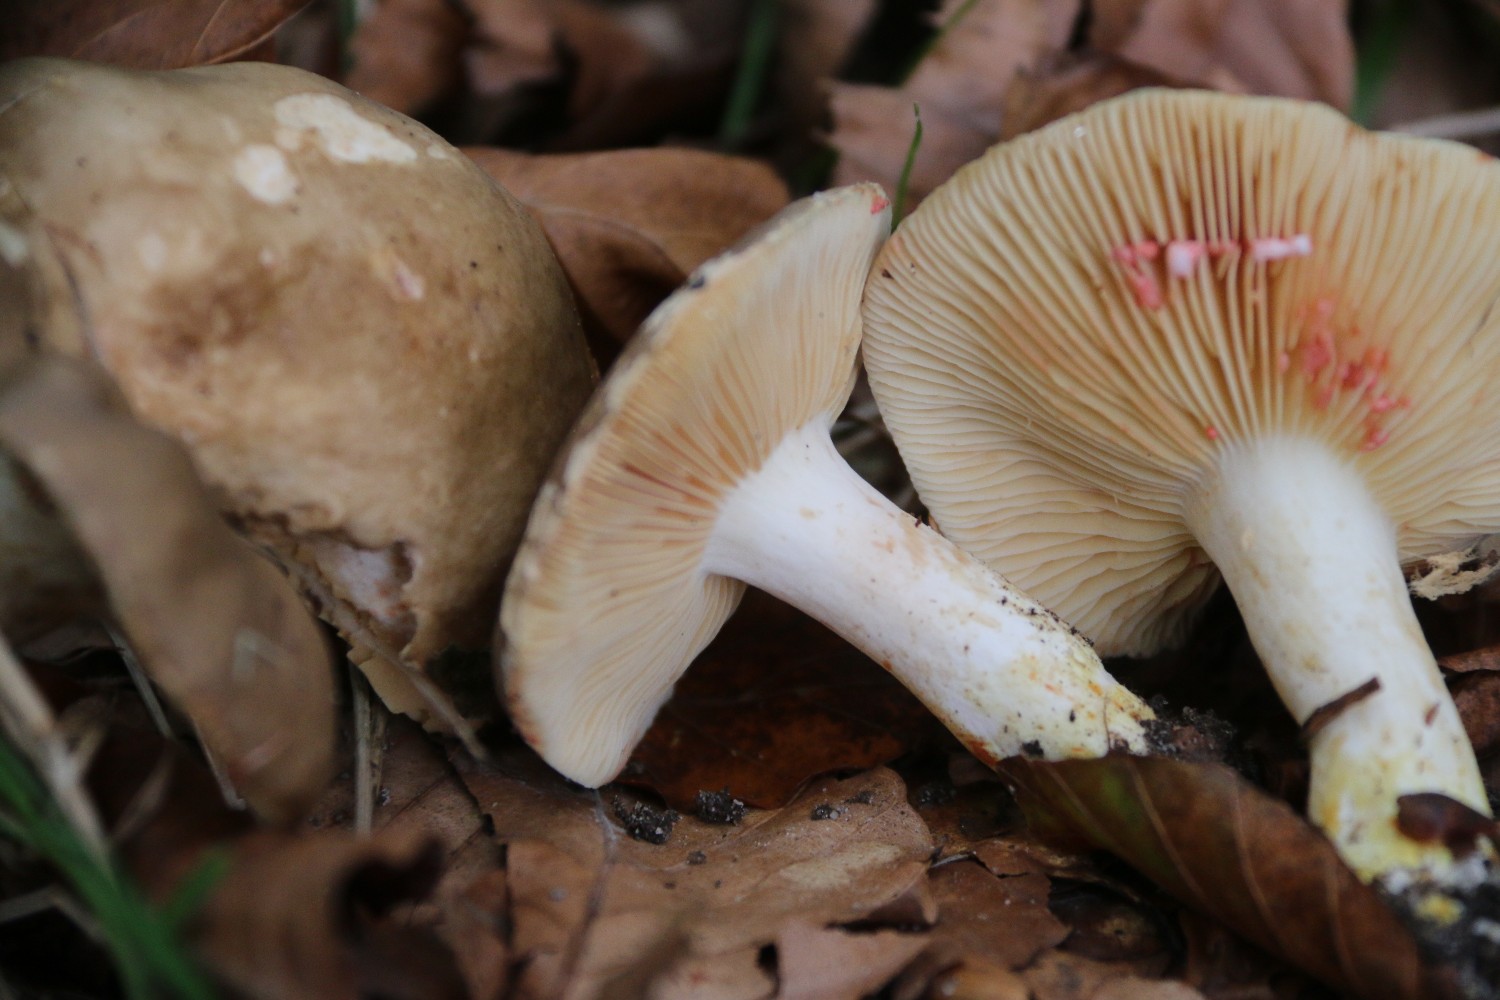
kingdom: Fungi
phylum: Basidiomycota
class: Agaricomycetes
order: Russulales
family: Russulaceae
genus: Lactarius
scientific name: Lactarius acris
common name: rosamælket mælkehat
